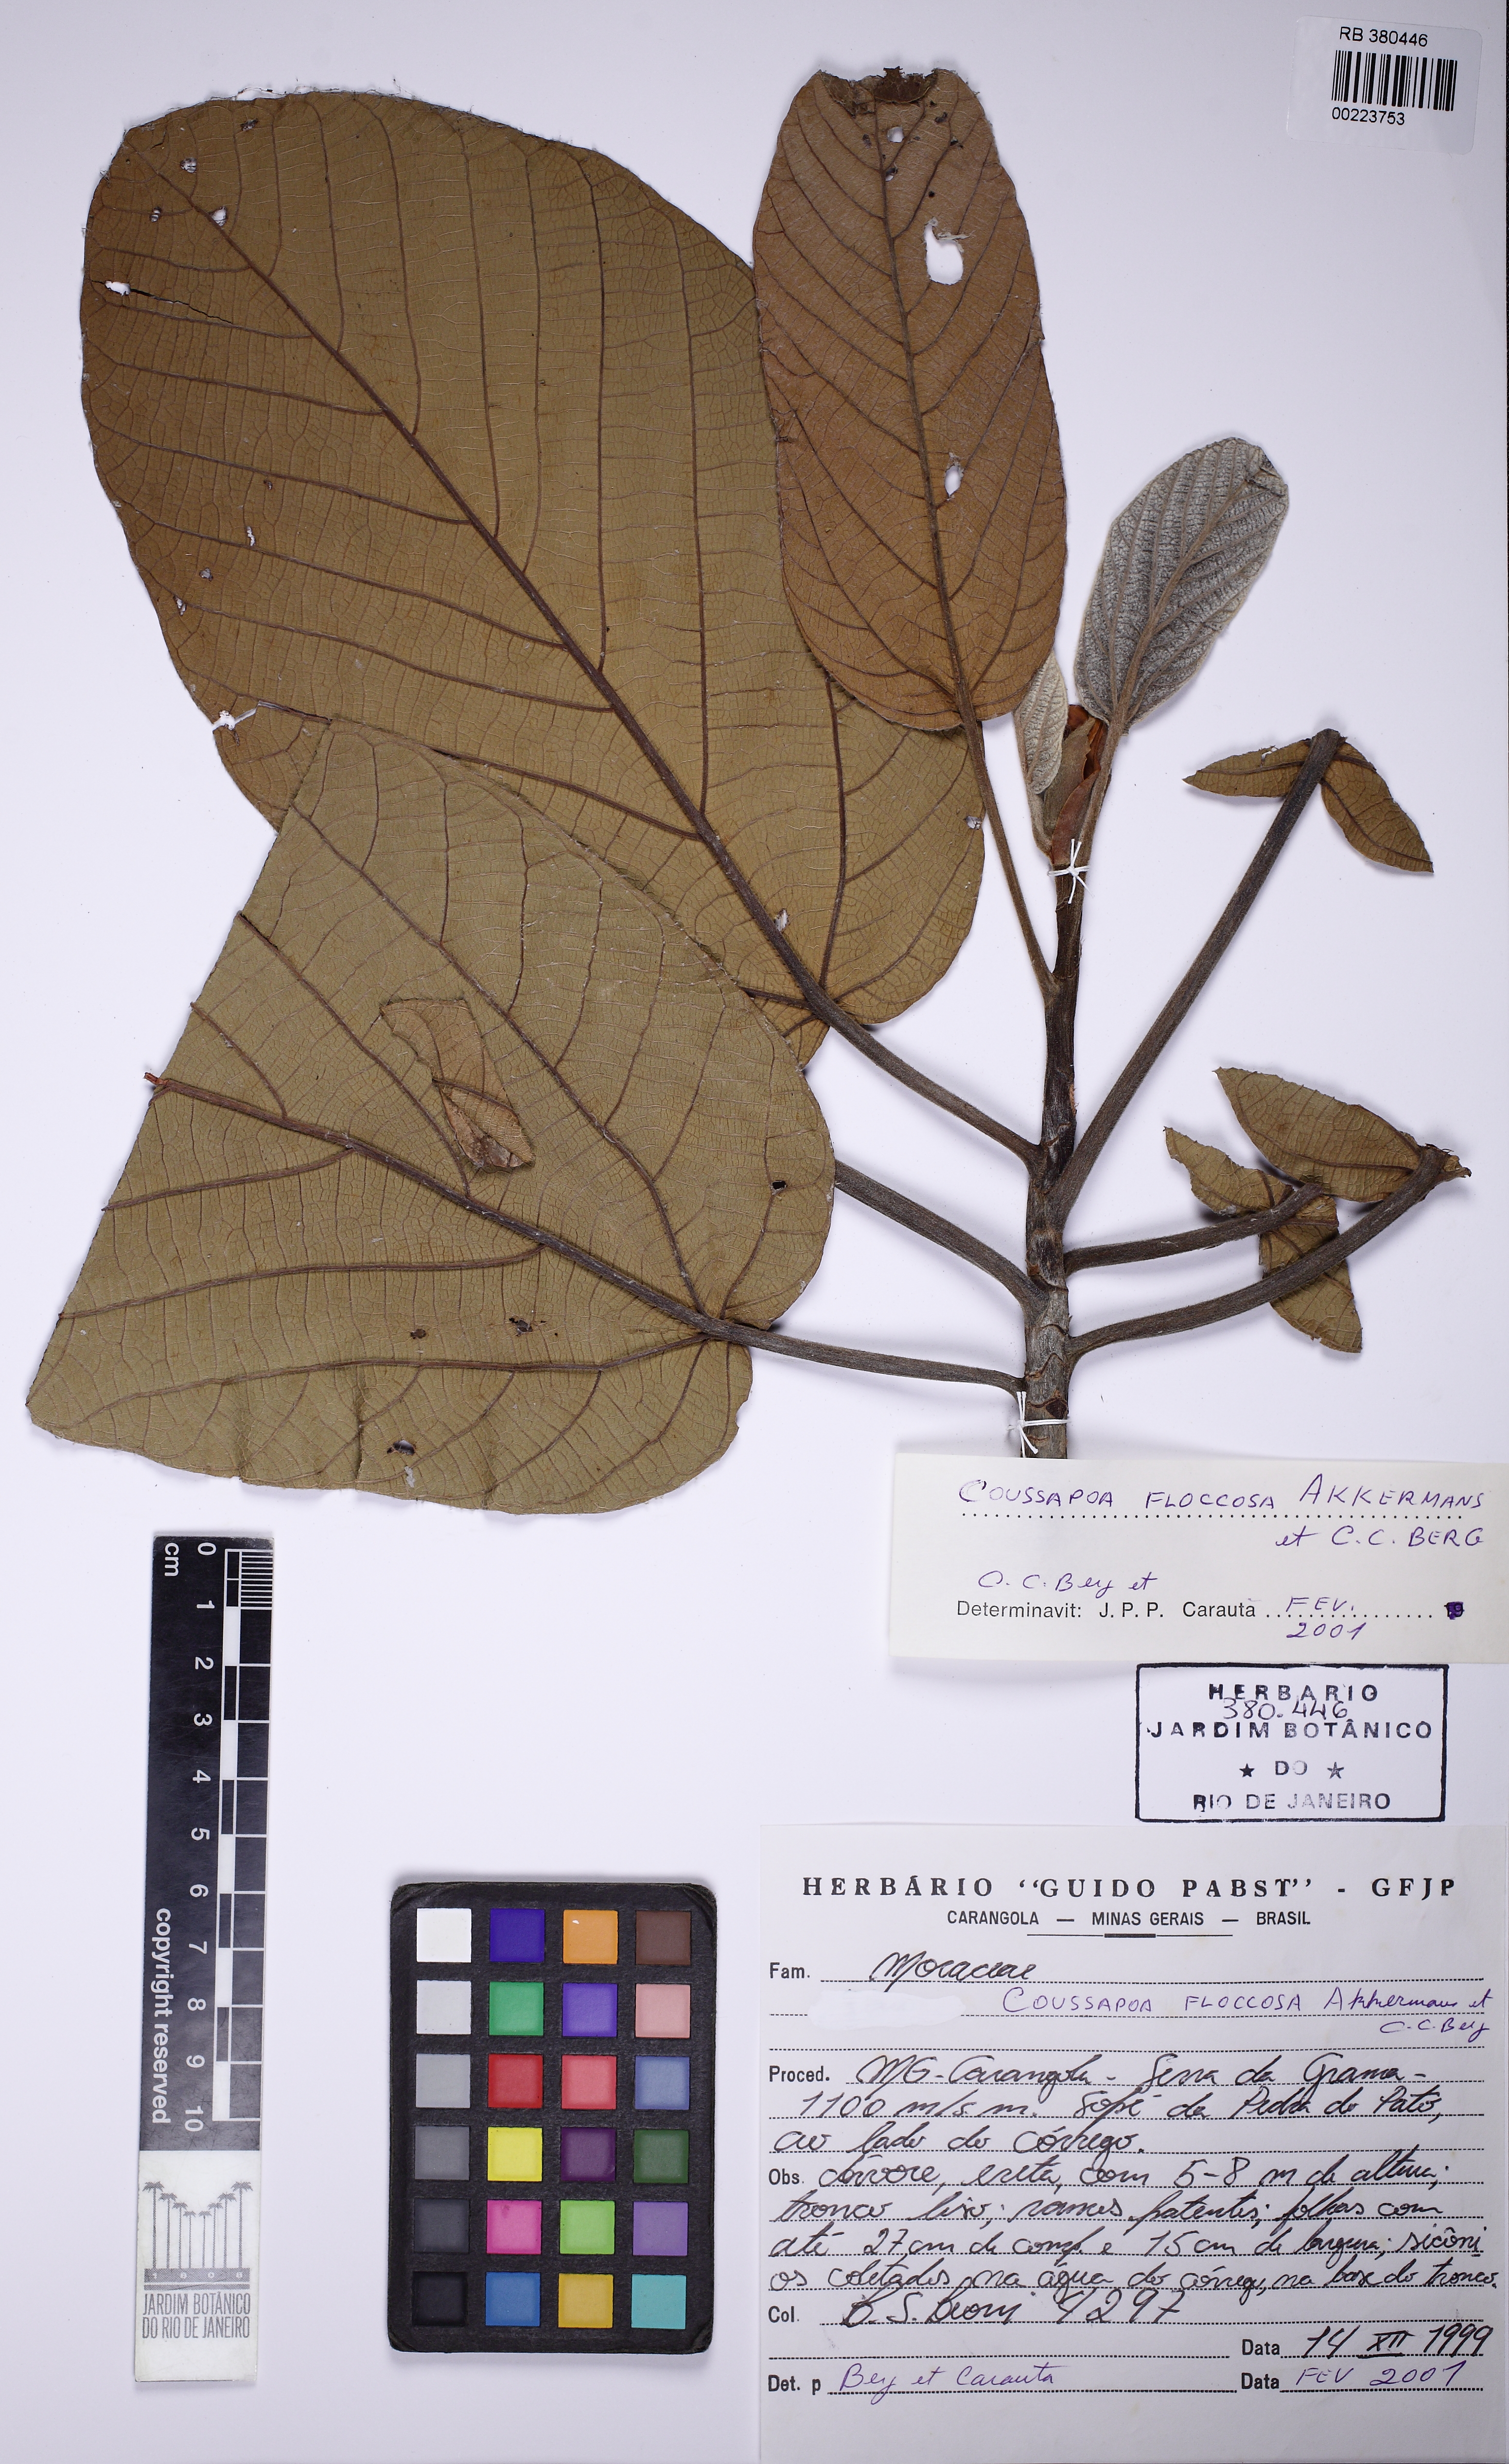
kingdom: Plantae
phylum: Tracheophyta
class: Magnoliopsida
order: Rosales
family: Urticaceae
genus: Coussapoa
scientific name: Coussapoa floccosa
